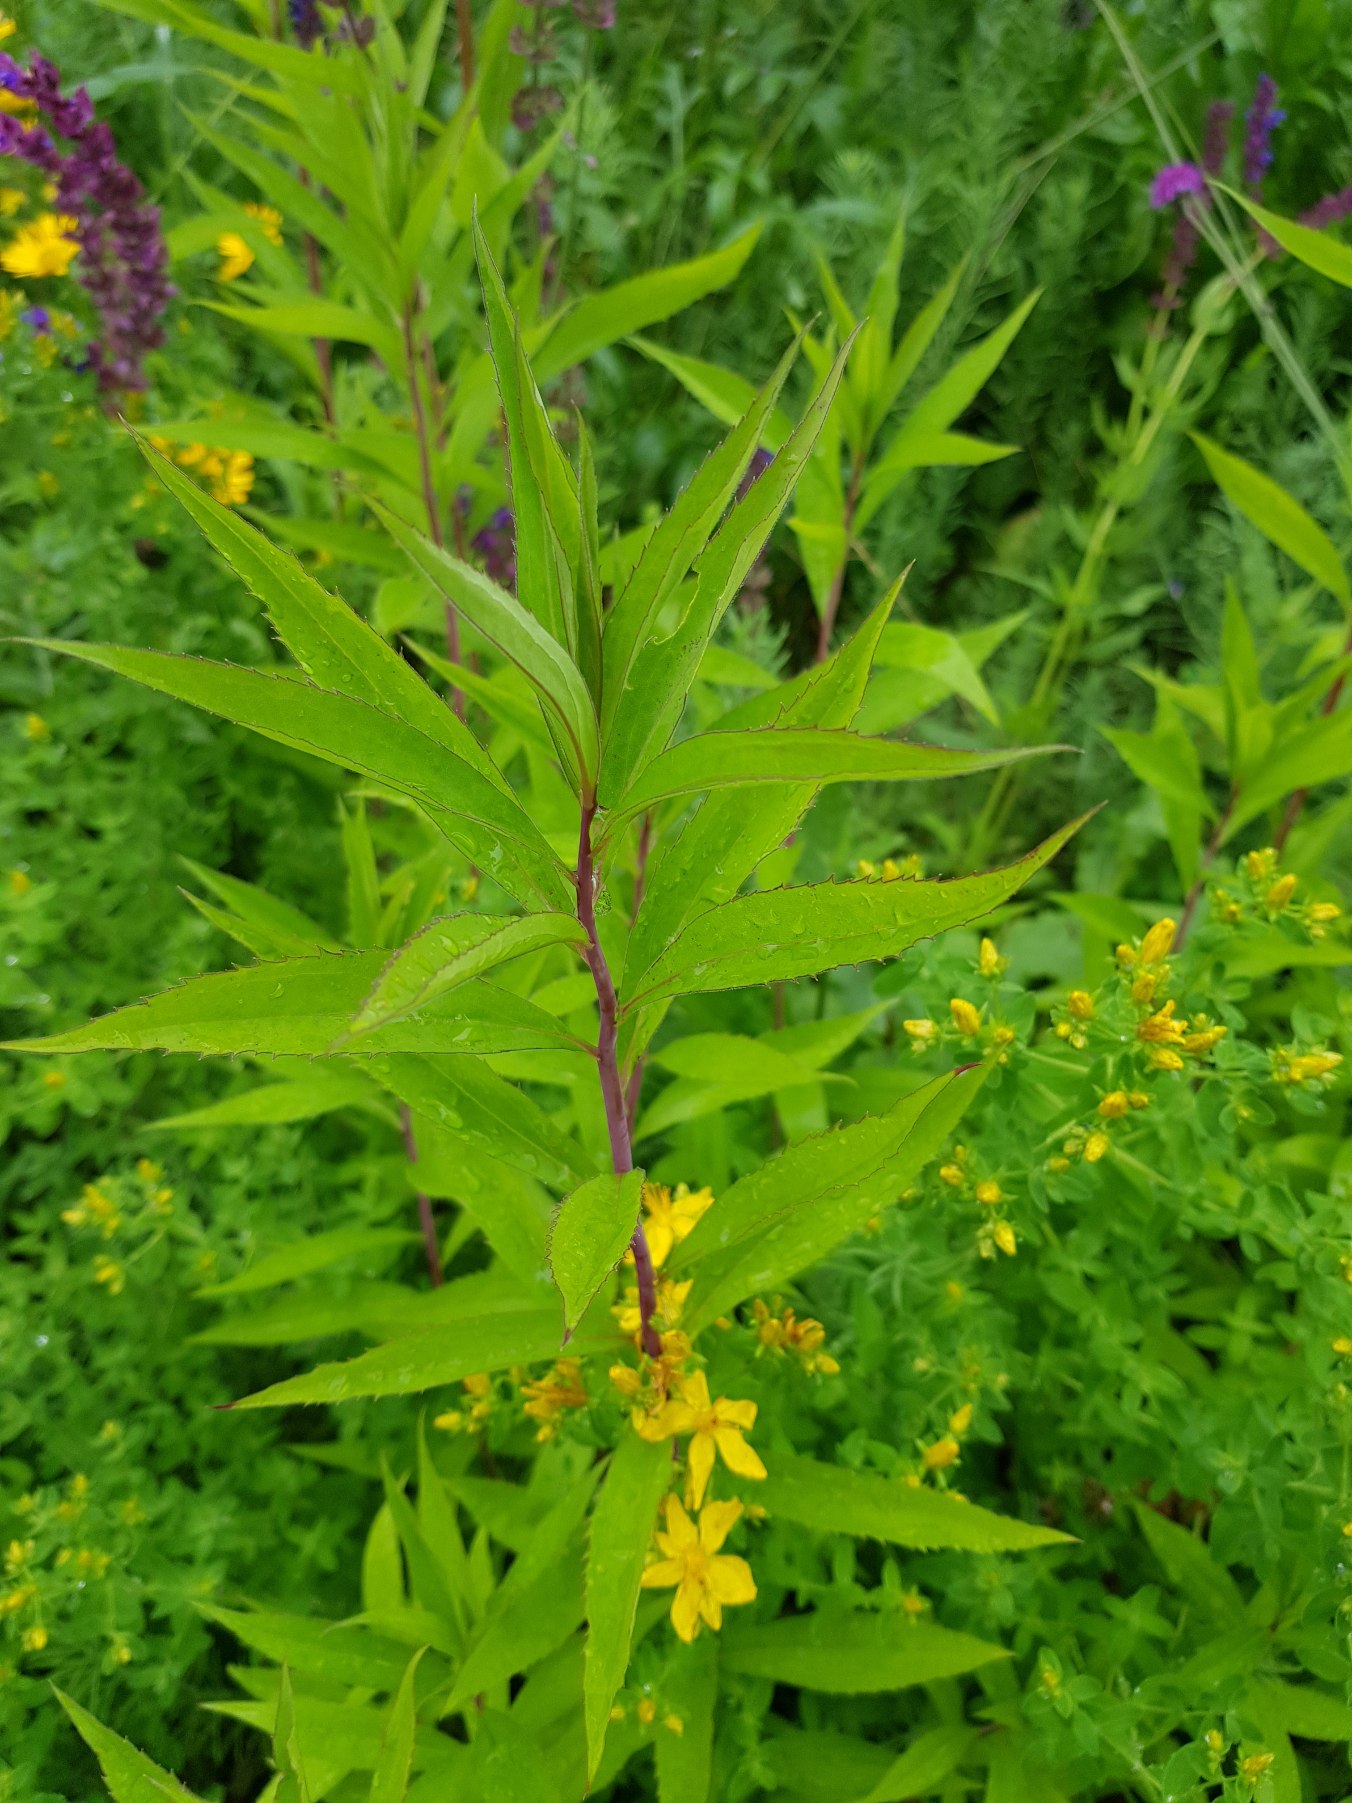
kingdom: Plantae
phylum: Tracheophyta
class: Magnoliopsida
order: Asterales
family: Asteraceae
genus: Solidago
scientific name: Solidago gigantea
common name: Sildig gyldenris
